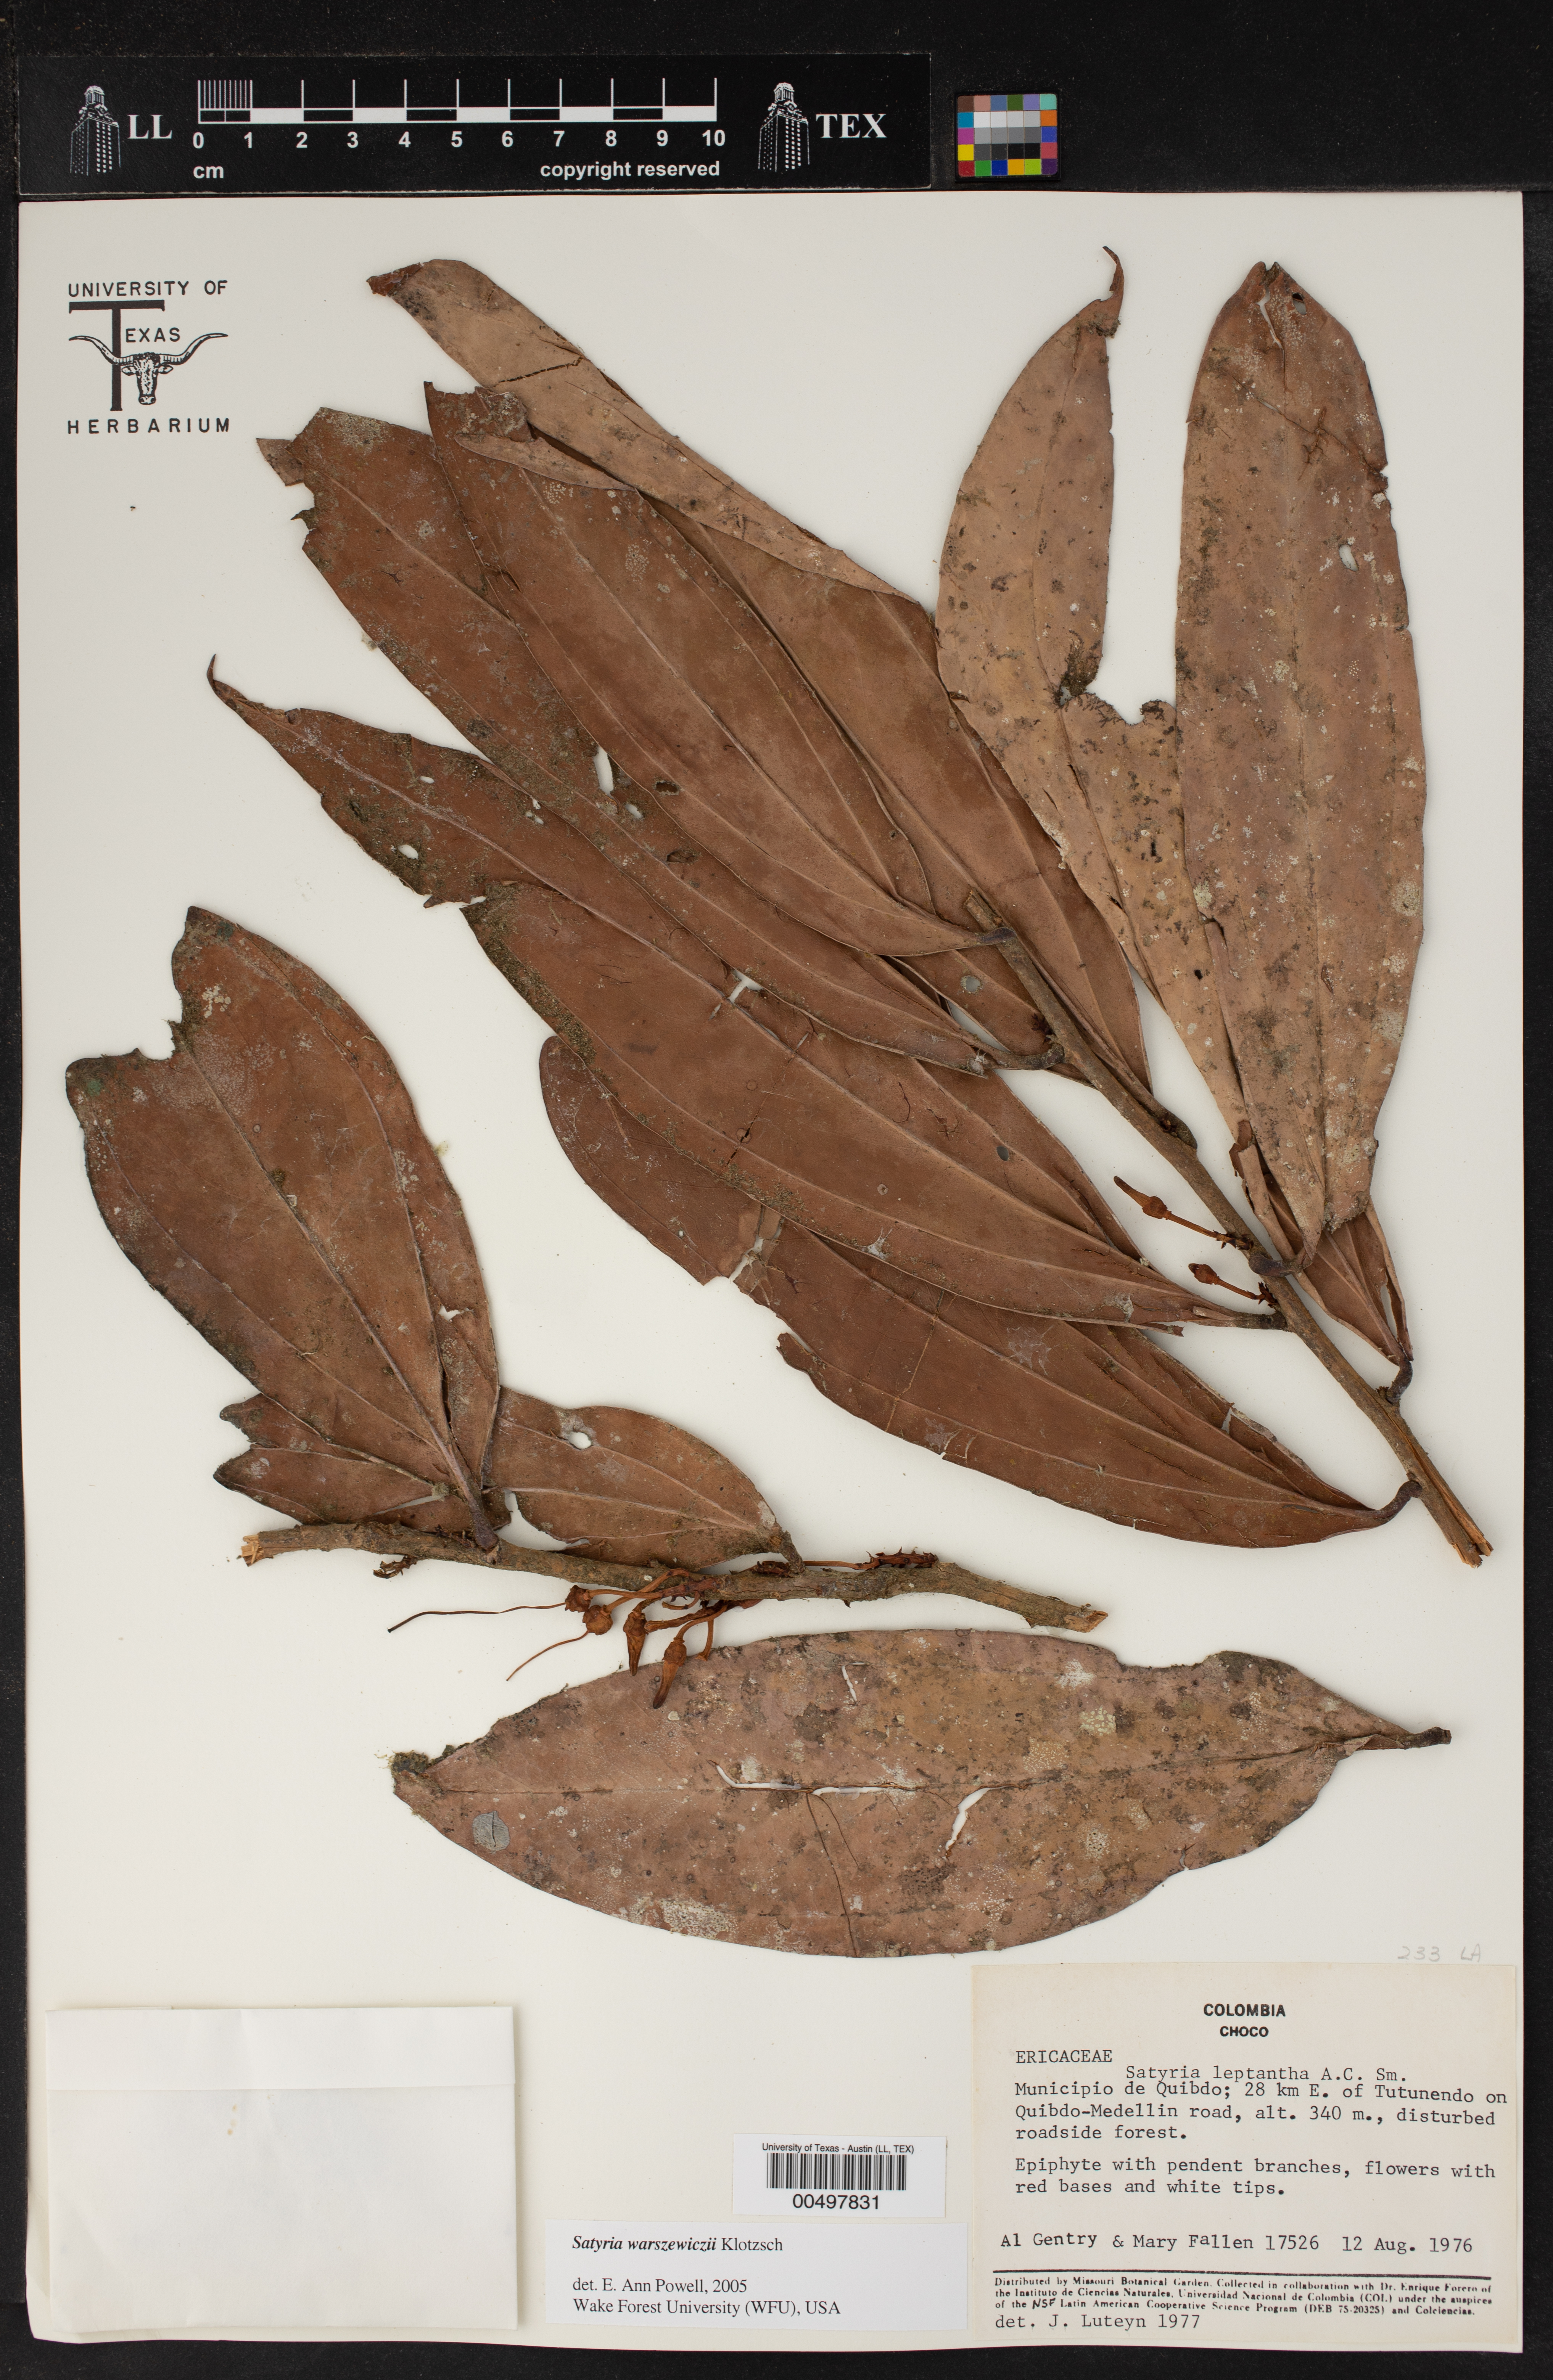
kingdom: Plantae
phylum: Tracheophyta
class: Magnoliopsida
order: Ericales
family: Ericaceae
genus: Satyria
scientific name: Satyria warszewiczii
